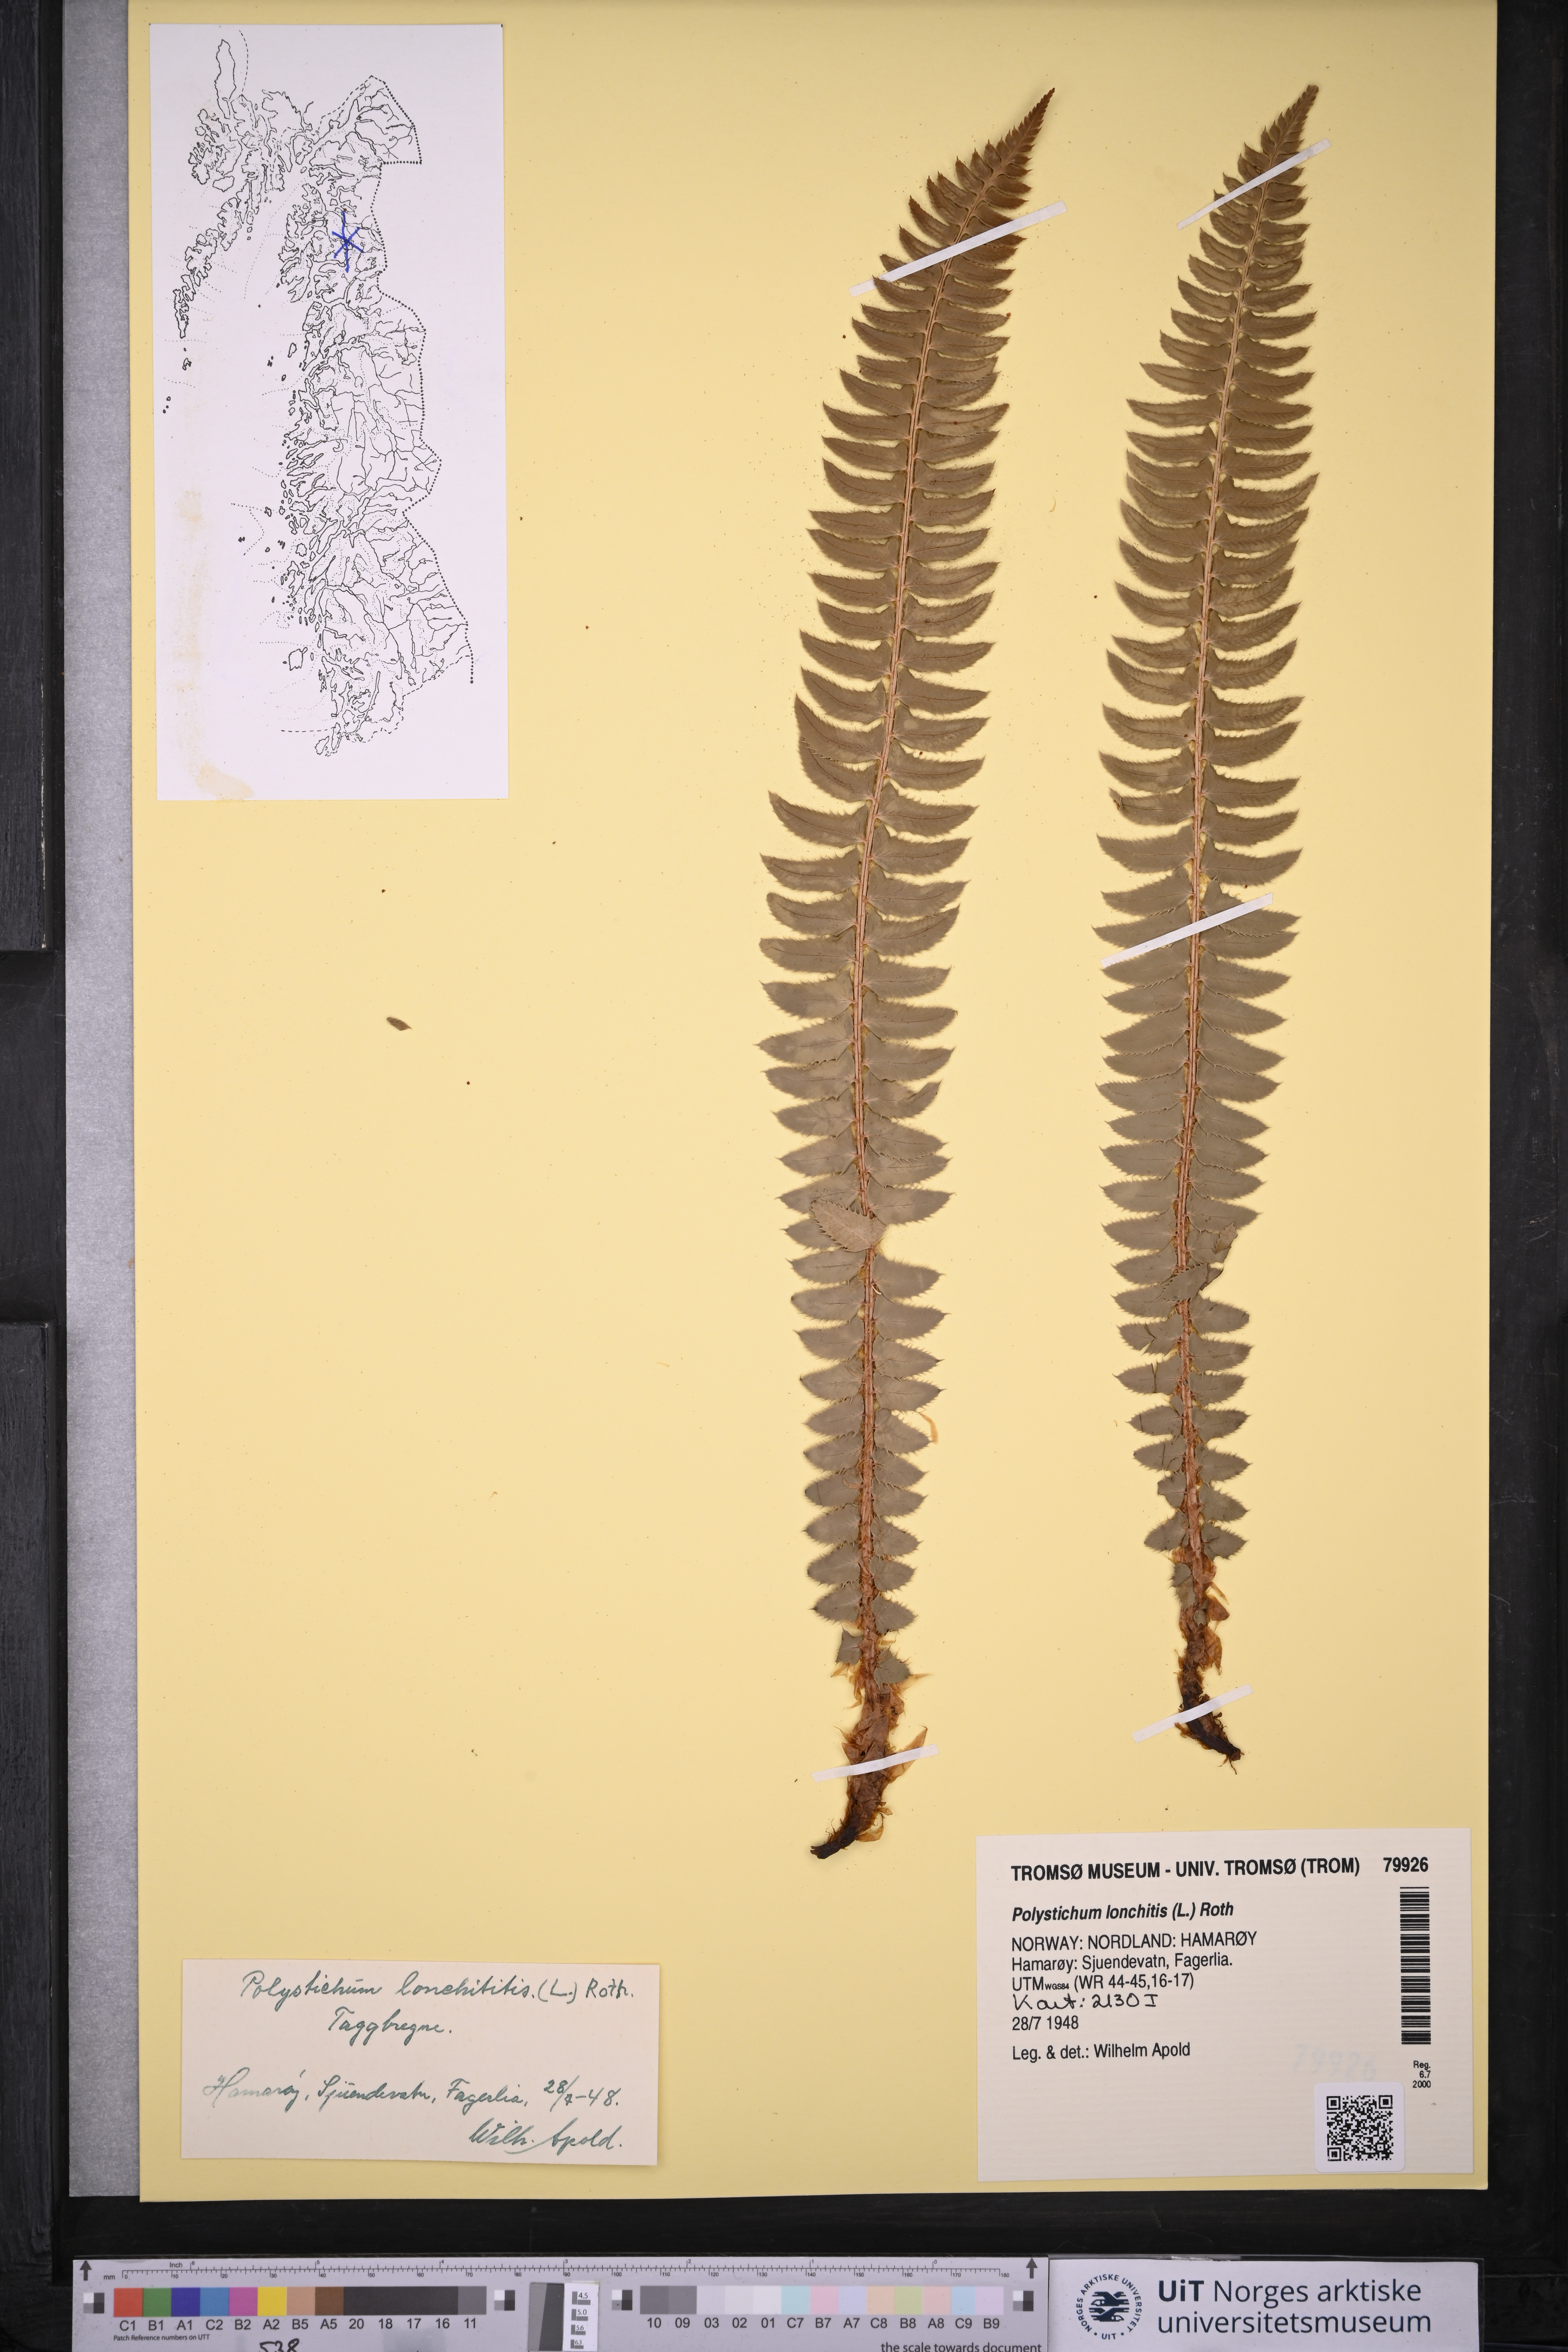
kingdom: Plantae
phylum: Tracheophyta
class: Polypodiopsida
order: Polypodiales
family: Dryopteridaceae
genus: Polystichum
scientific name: Polystichum lonchitis
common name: Holly fern
